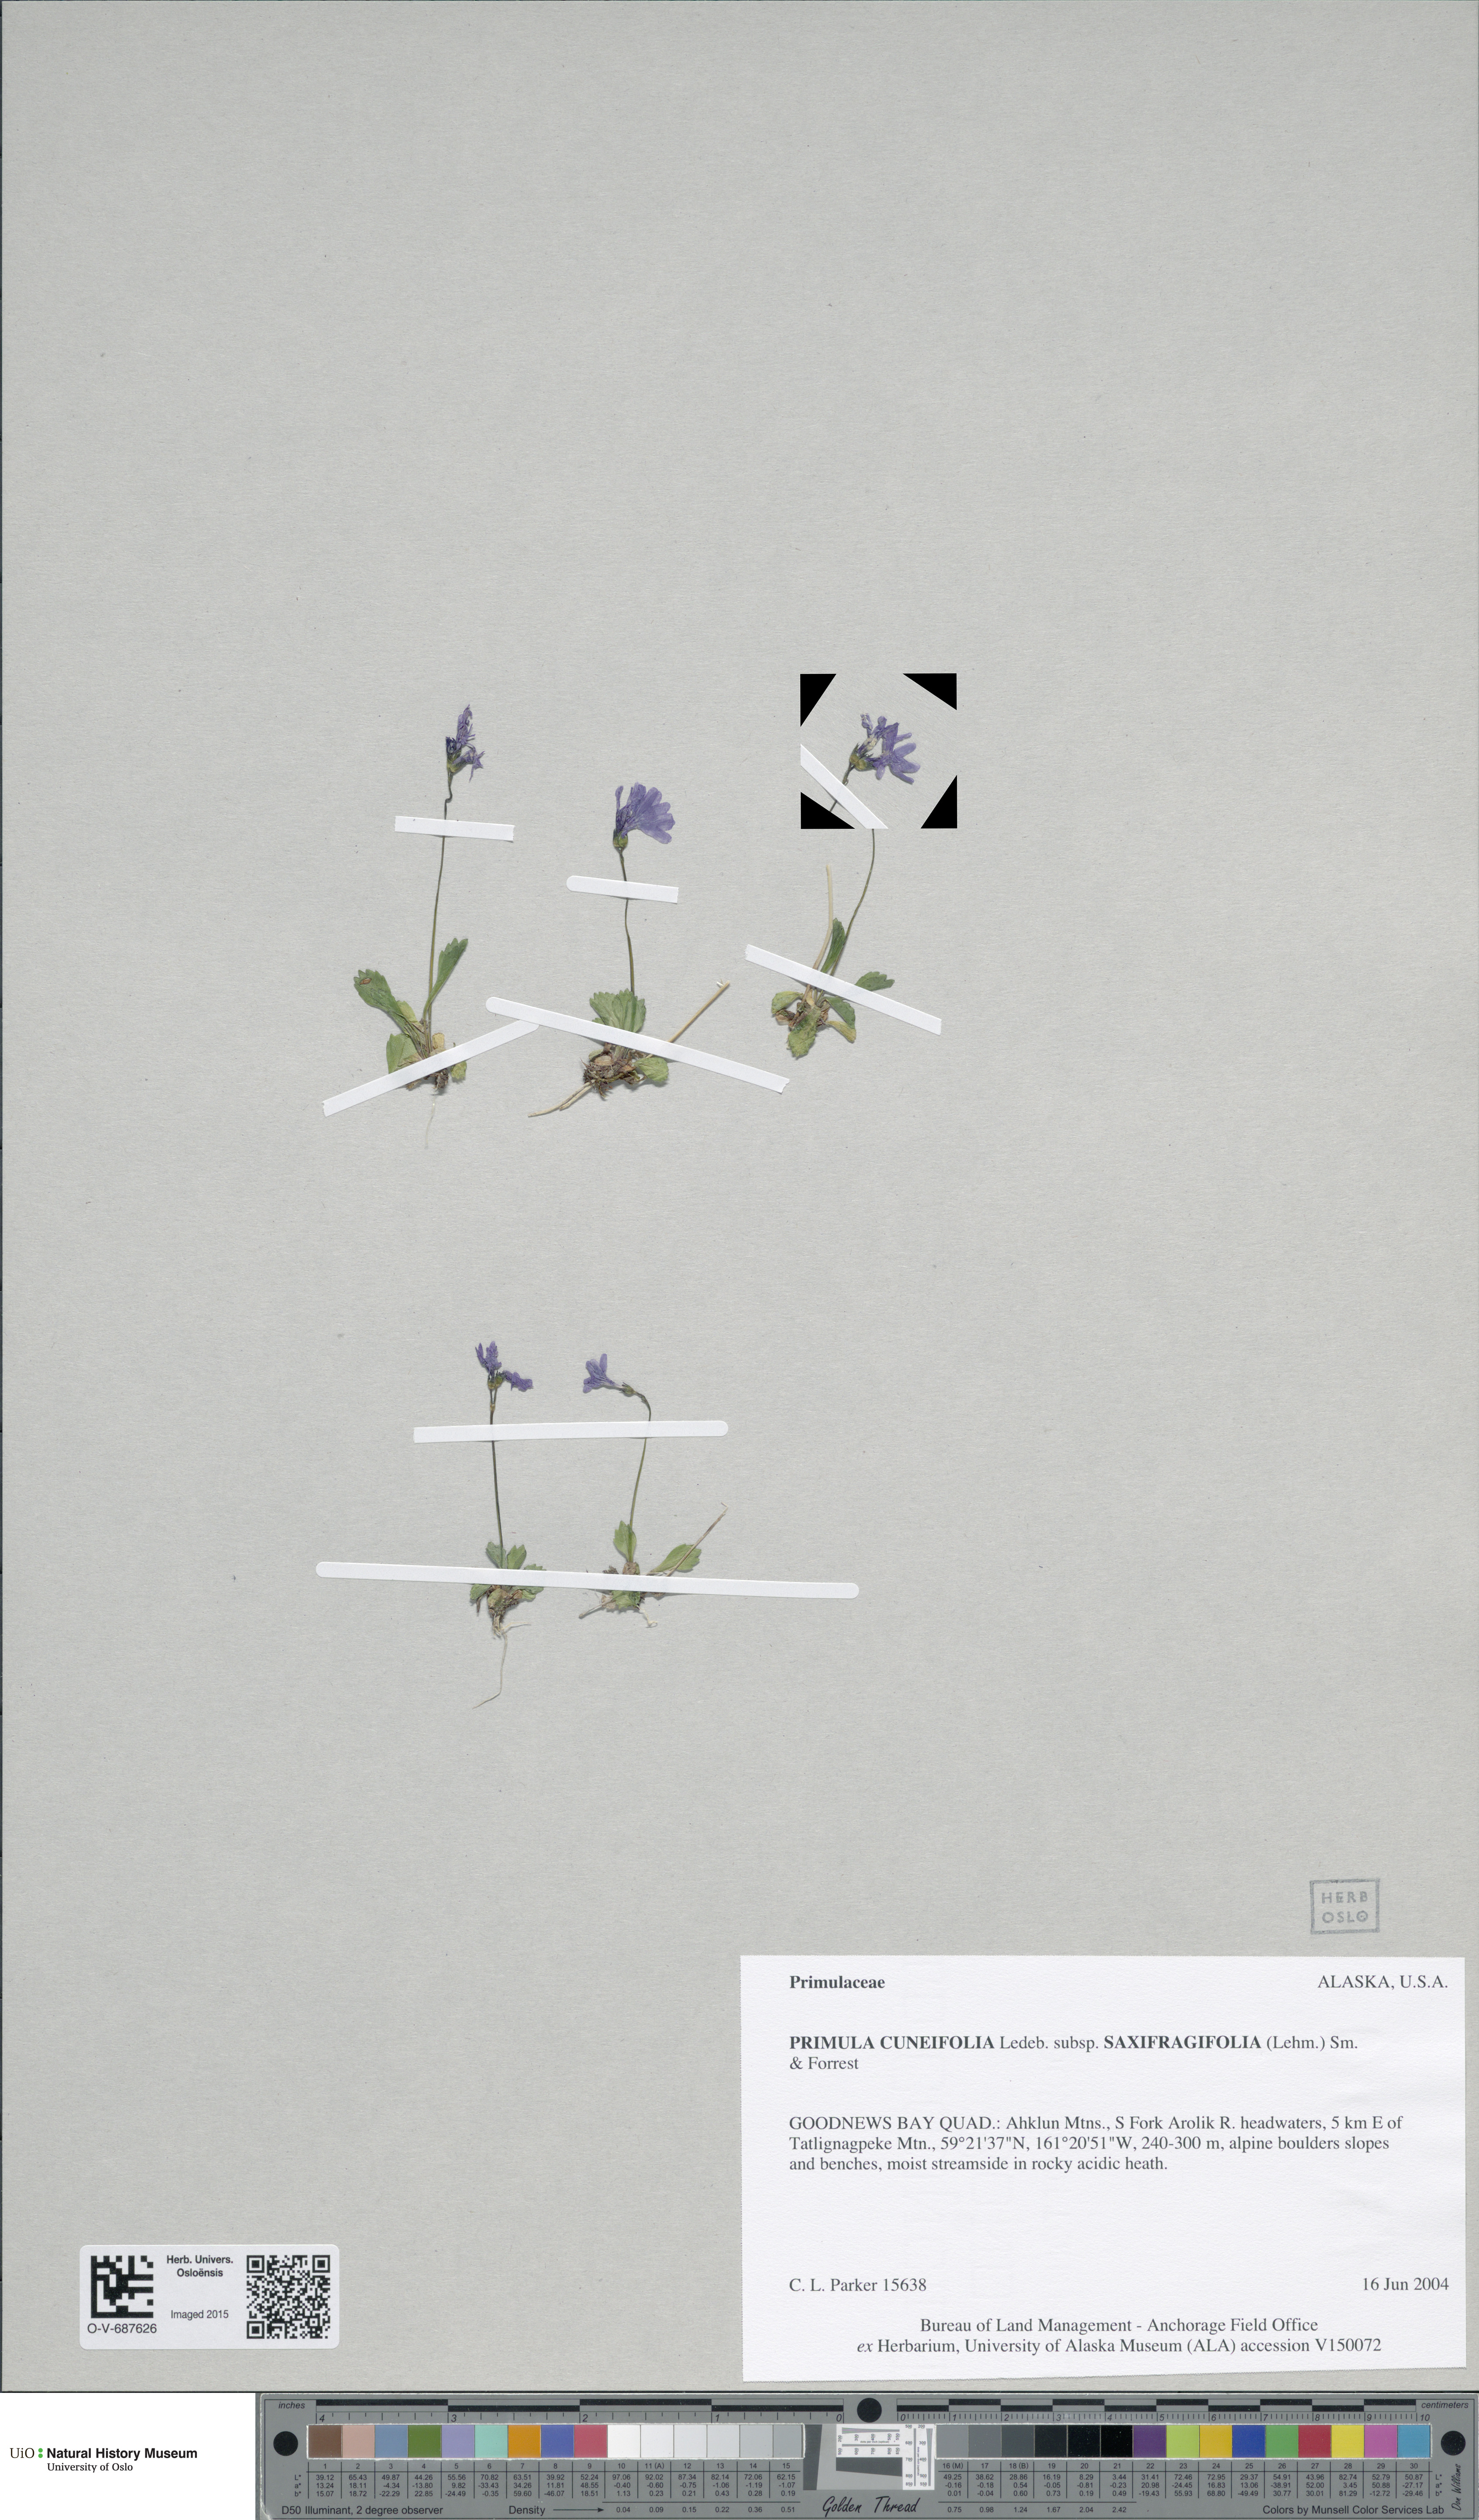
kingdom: Plantae
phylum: Tracheophyta
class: Magnoliopsida
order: Ericales
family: Primulaceae
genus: Primula
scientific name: Primula cuneifolia
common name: Wedge-leaved primrose
